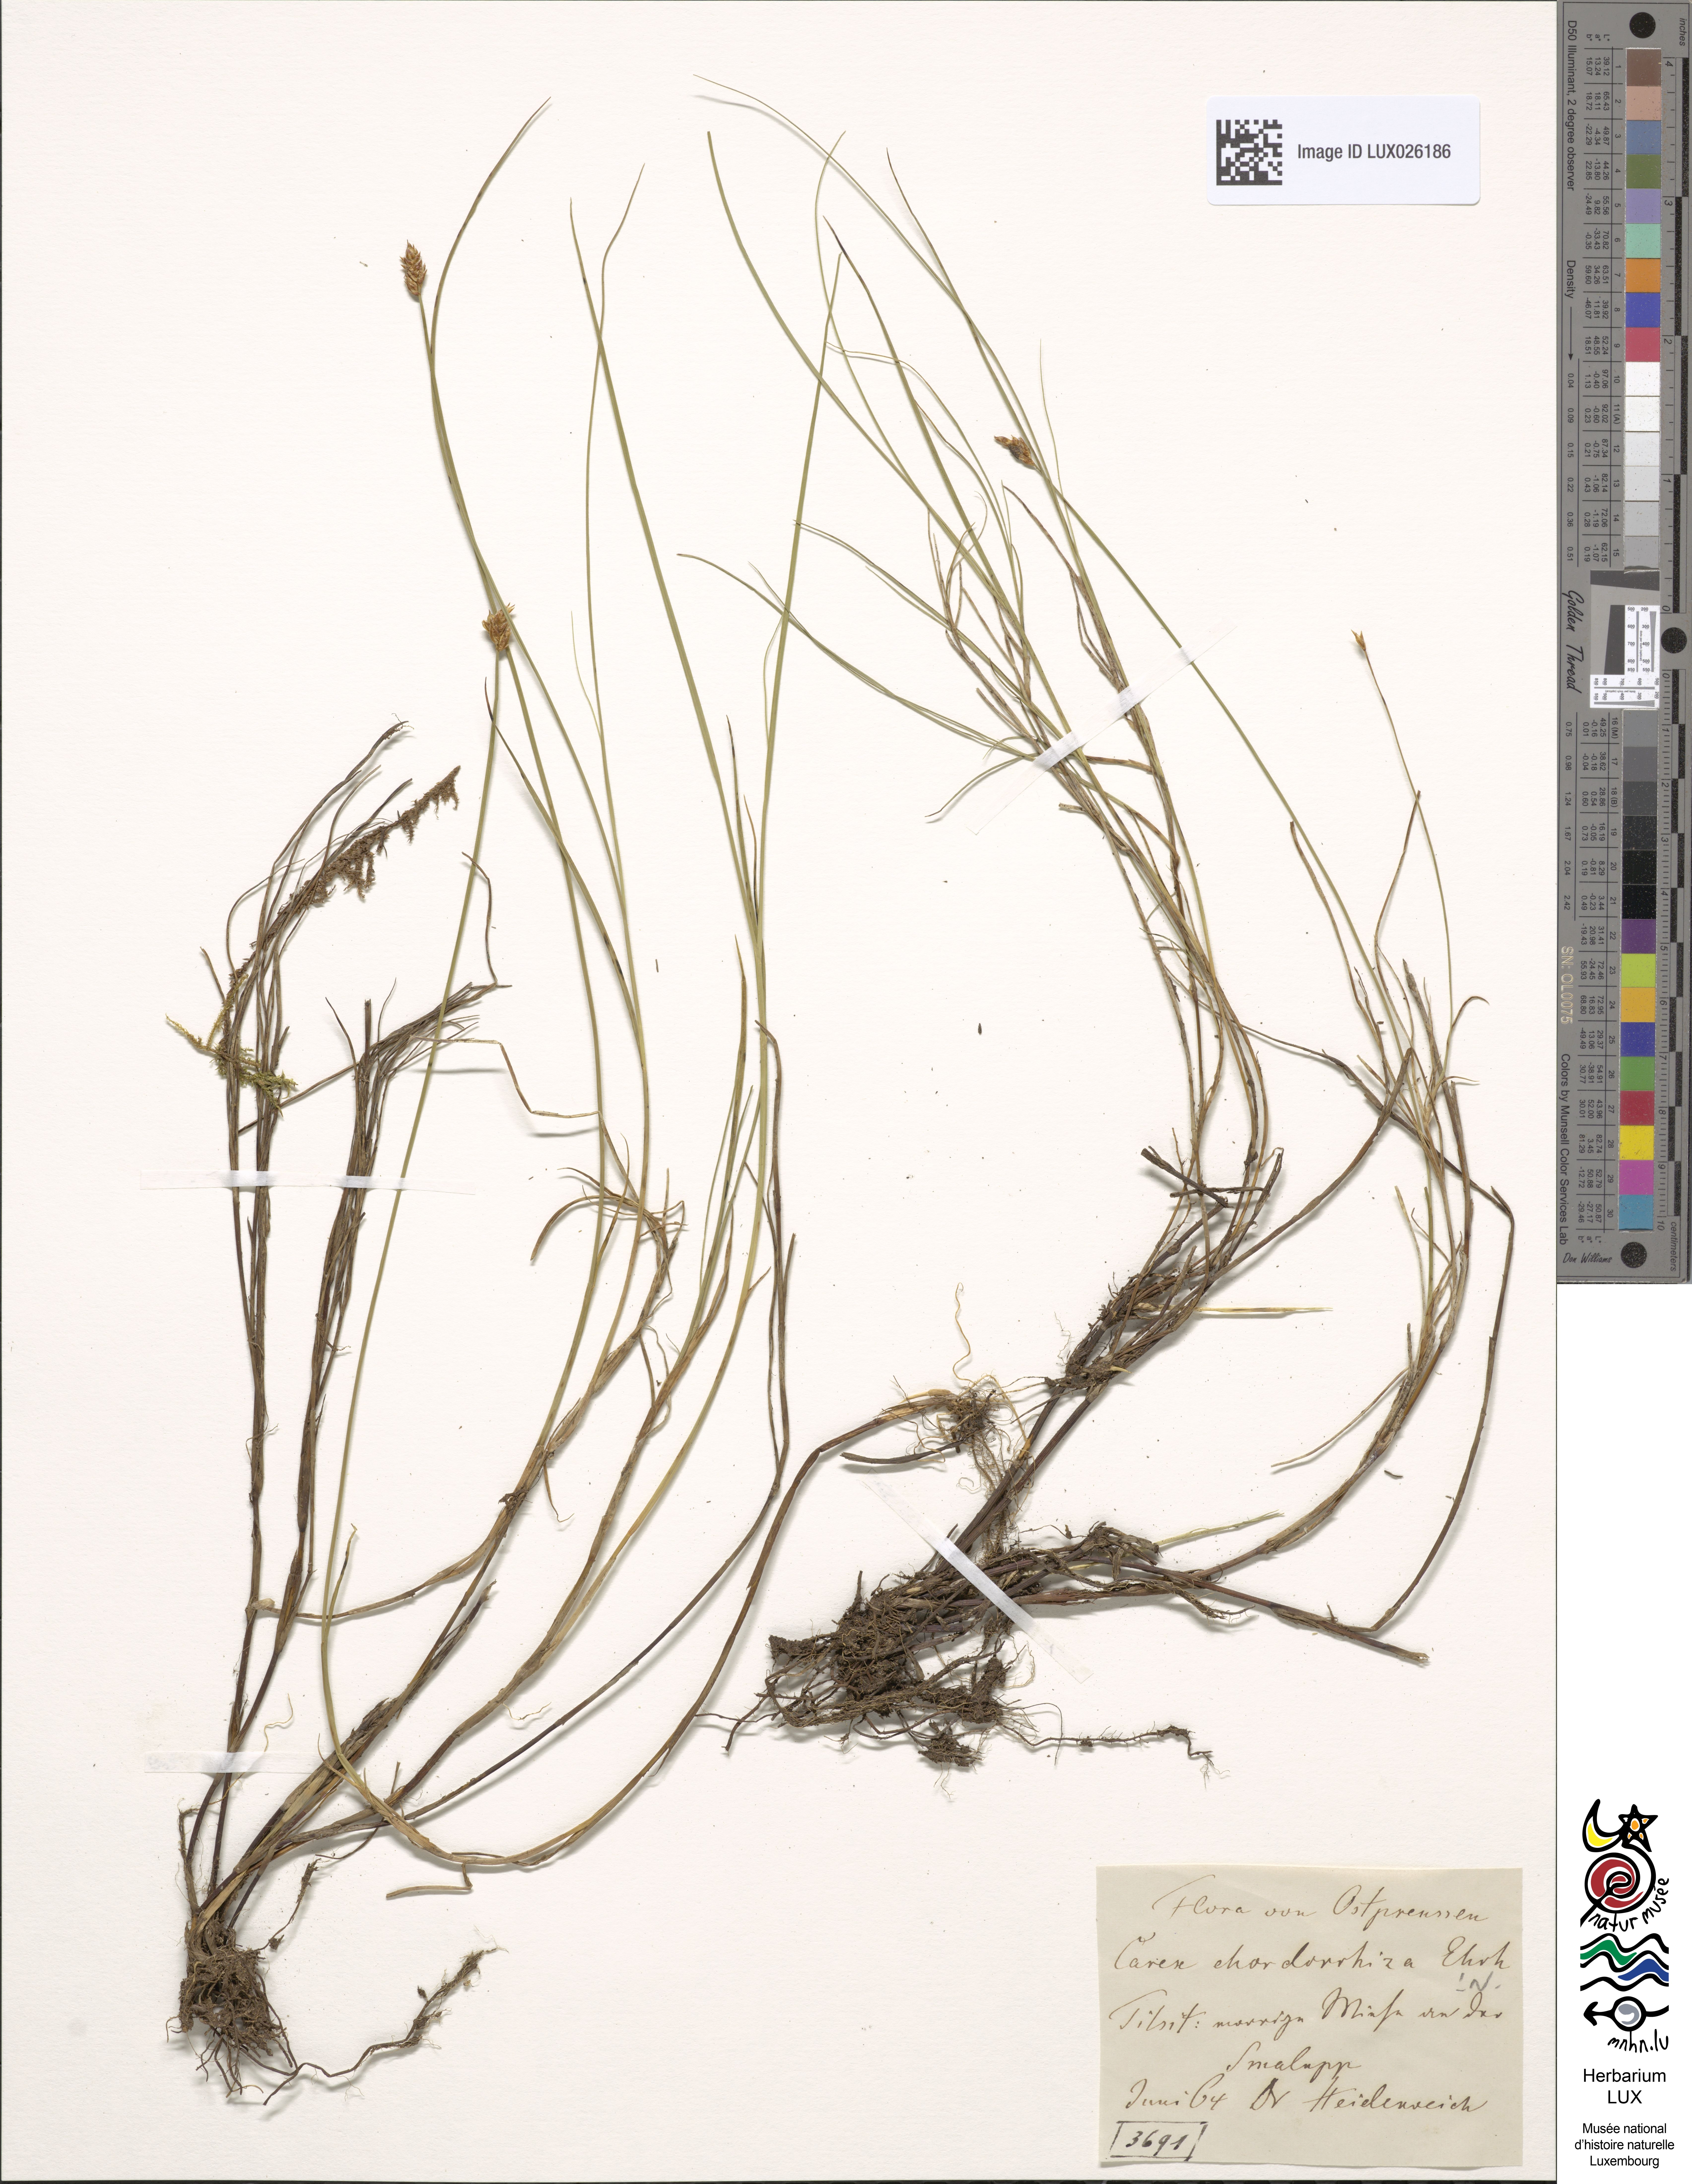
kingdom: Plantae
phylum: Tracheophyta
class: Liliopsida
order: Poales
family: Cyperaceae
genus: Carex
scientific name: Carex chordorrhiza
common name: String sedge
